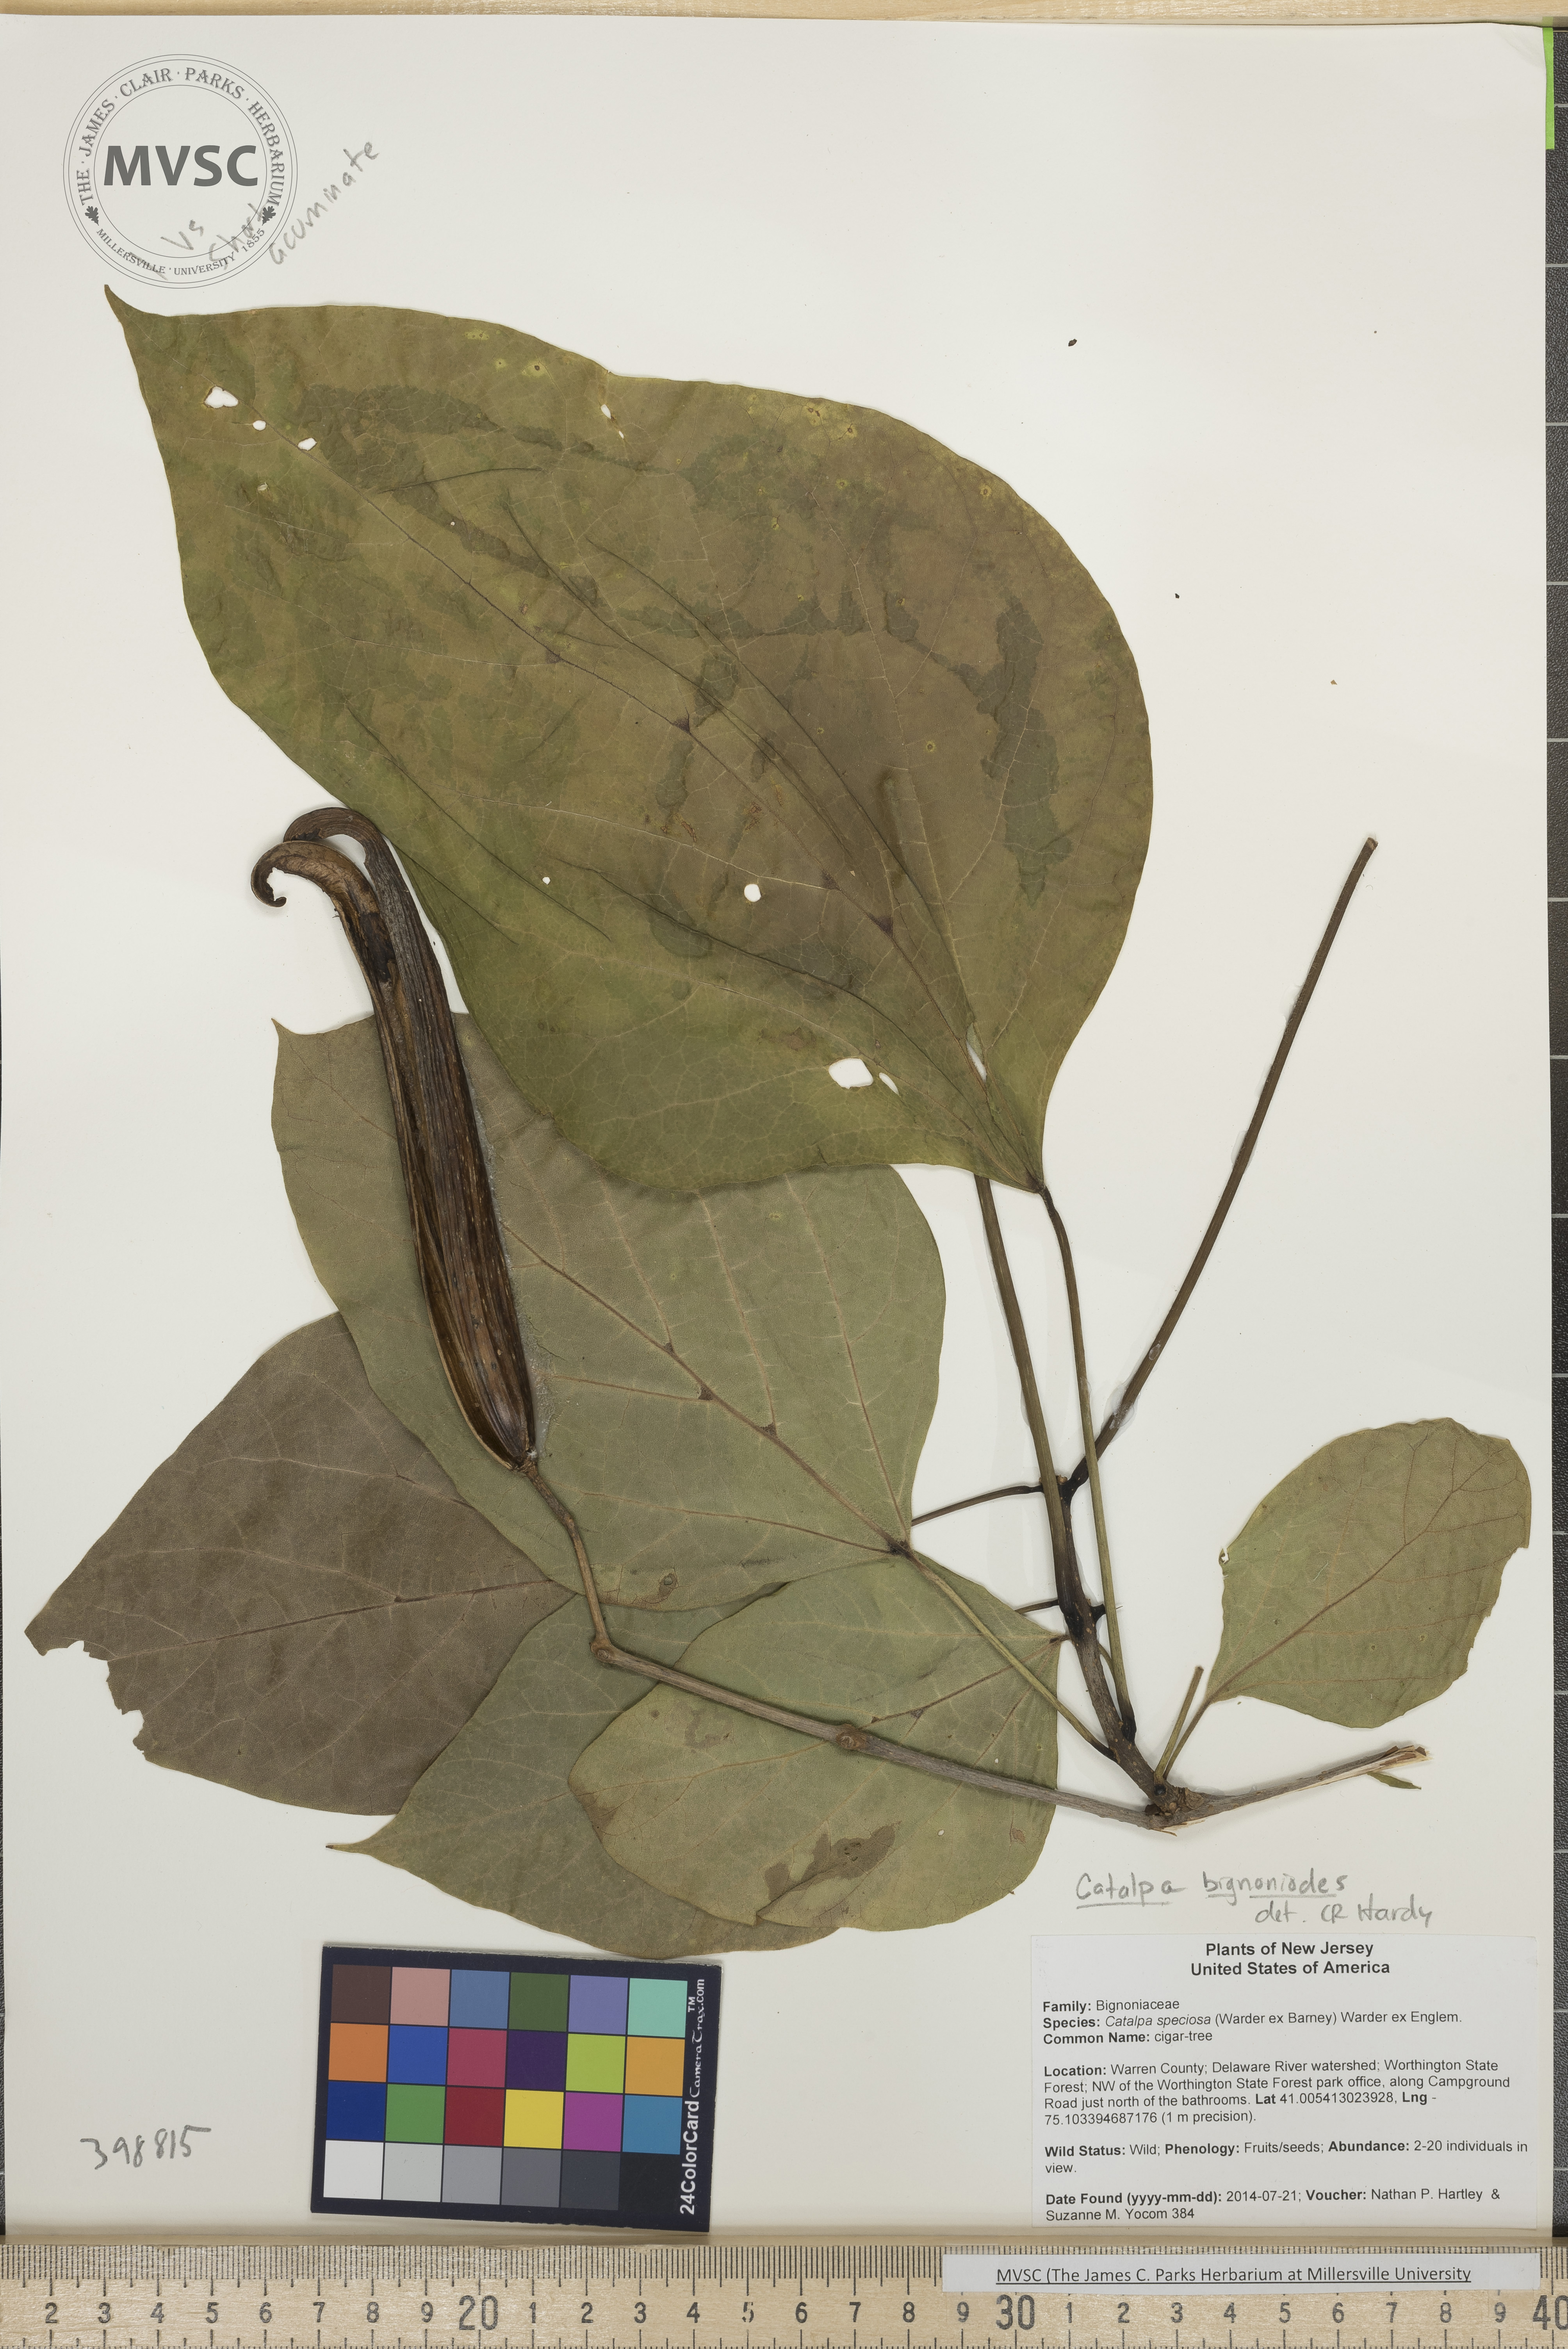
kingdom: Plantae
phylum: Tracheophyta
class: Magnoliopsida
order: Lamiales
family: Bignoniaceae
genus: Catalpa
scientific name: Catalpa bignonioides
